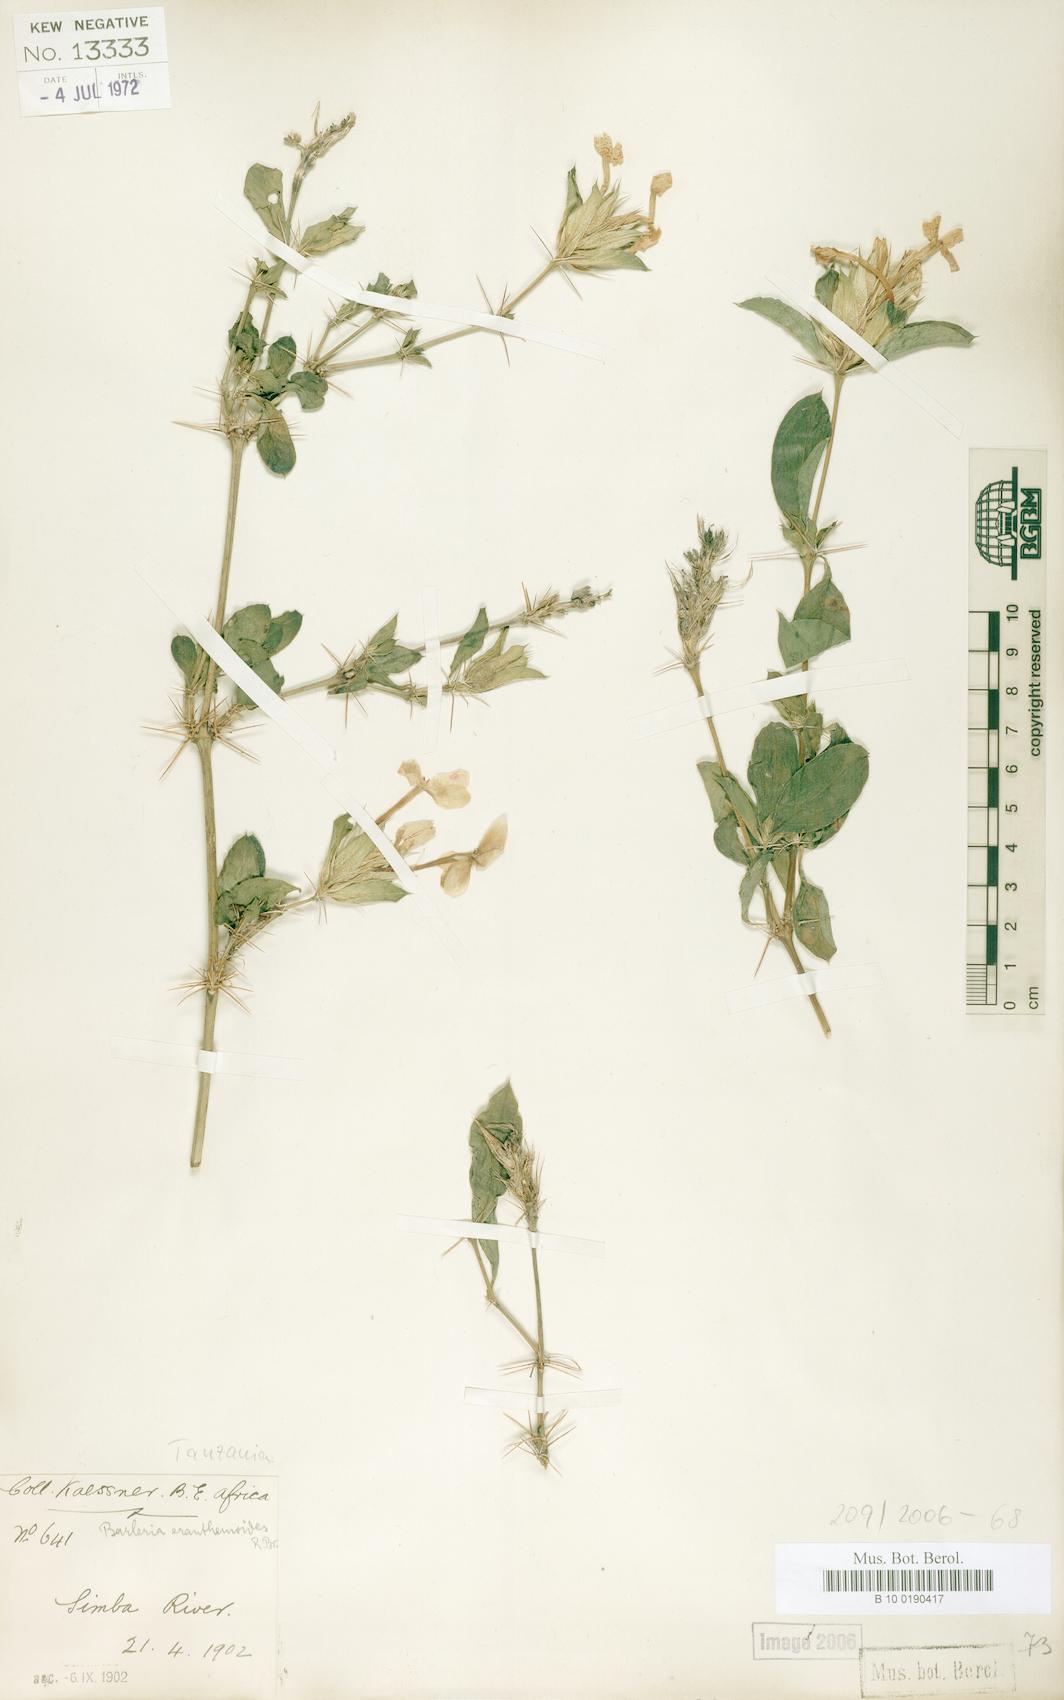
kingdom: Plantae
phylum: Tracheophyta
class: Magnoliopsida
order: Lamiales
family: Acanthaceae
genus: Barleria
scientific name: Barleria eranthemoides
